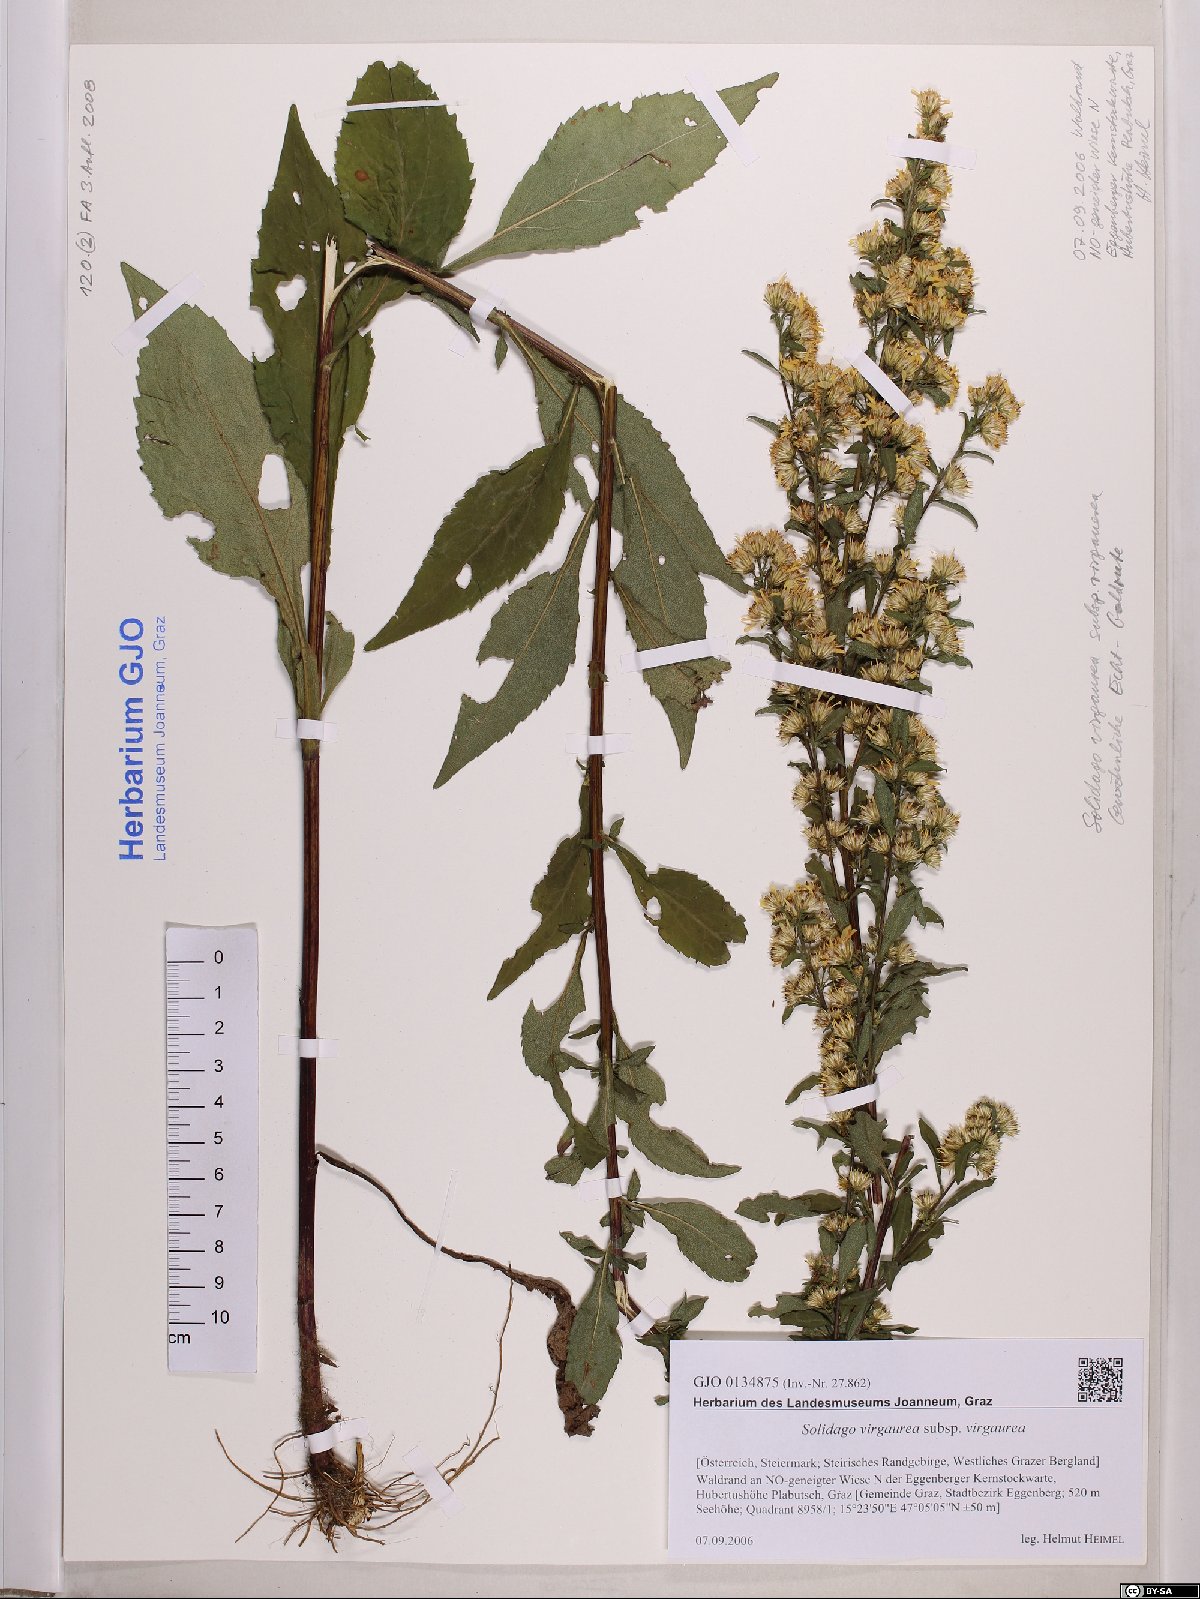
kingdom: Plantae
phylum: Tracheophyta
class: Magnoliopsida
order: Asterales
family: Asteraceae
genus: Solidago
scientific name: Solidago virgaurea
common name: Goldenrod
